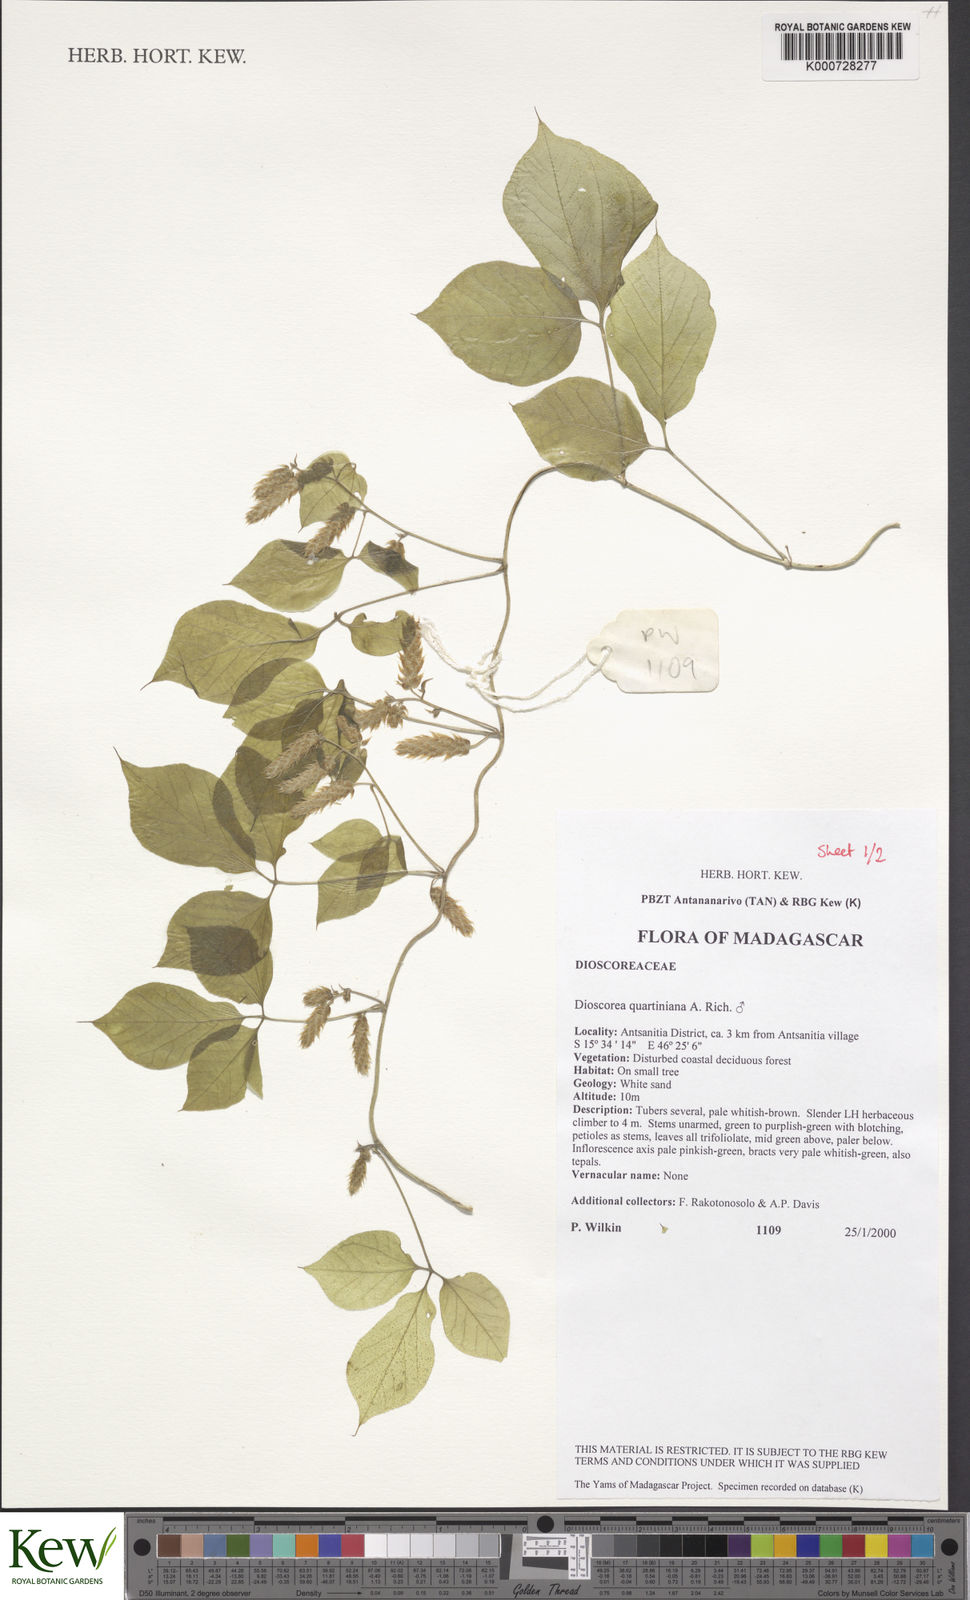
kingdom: Plantae
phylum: Tracheophyta
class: Liliopsida
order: Dioscoreales
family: Dioscoreaceae
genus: Dioscorea
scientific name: Dioscorea quartiniana
